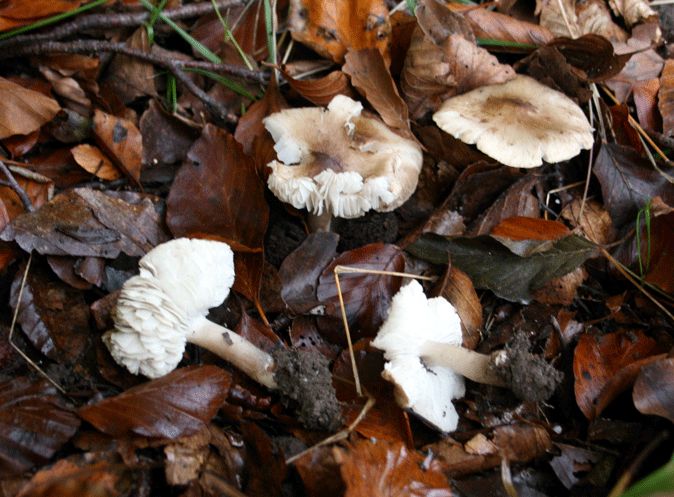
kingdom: Fungi
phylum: Basidiomycota
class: Agaricomycetes
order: Agaricales
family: Tricholomataceae
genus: Tricholoma
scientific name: Tricholoma scalpturatum
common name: gulplettet ridderhat
